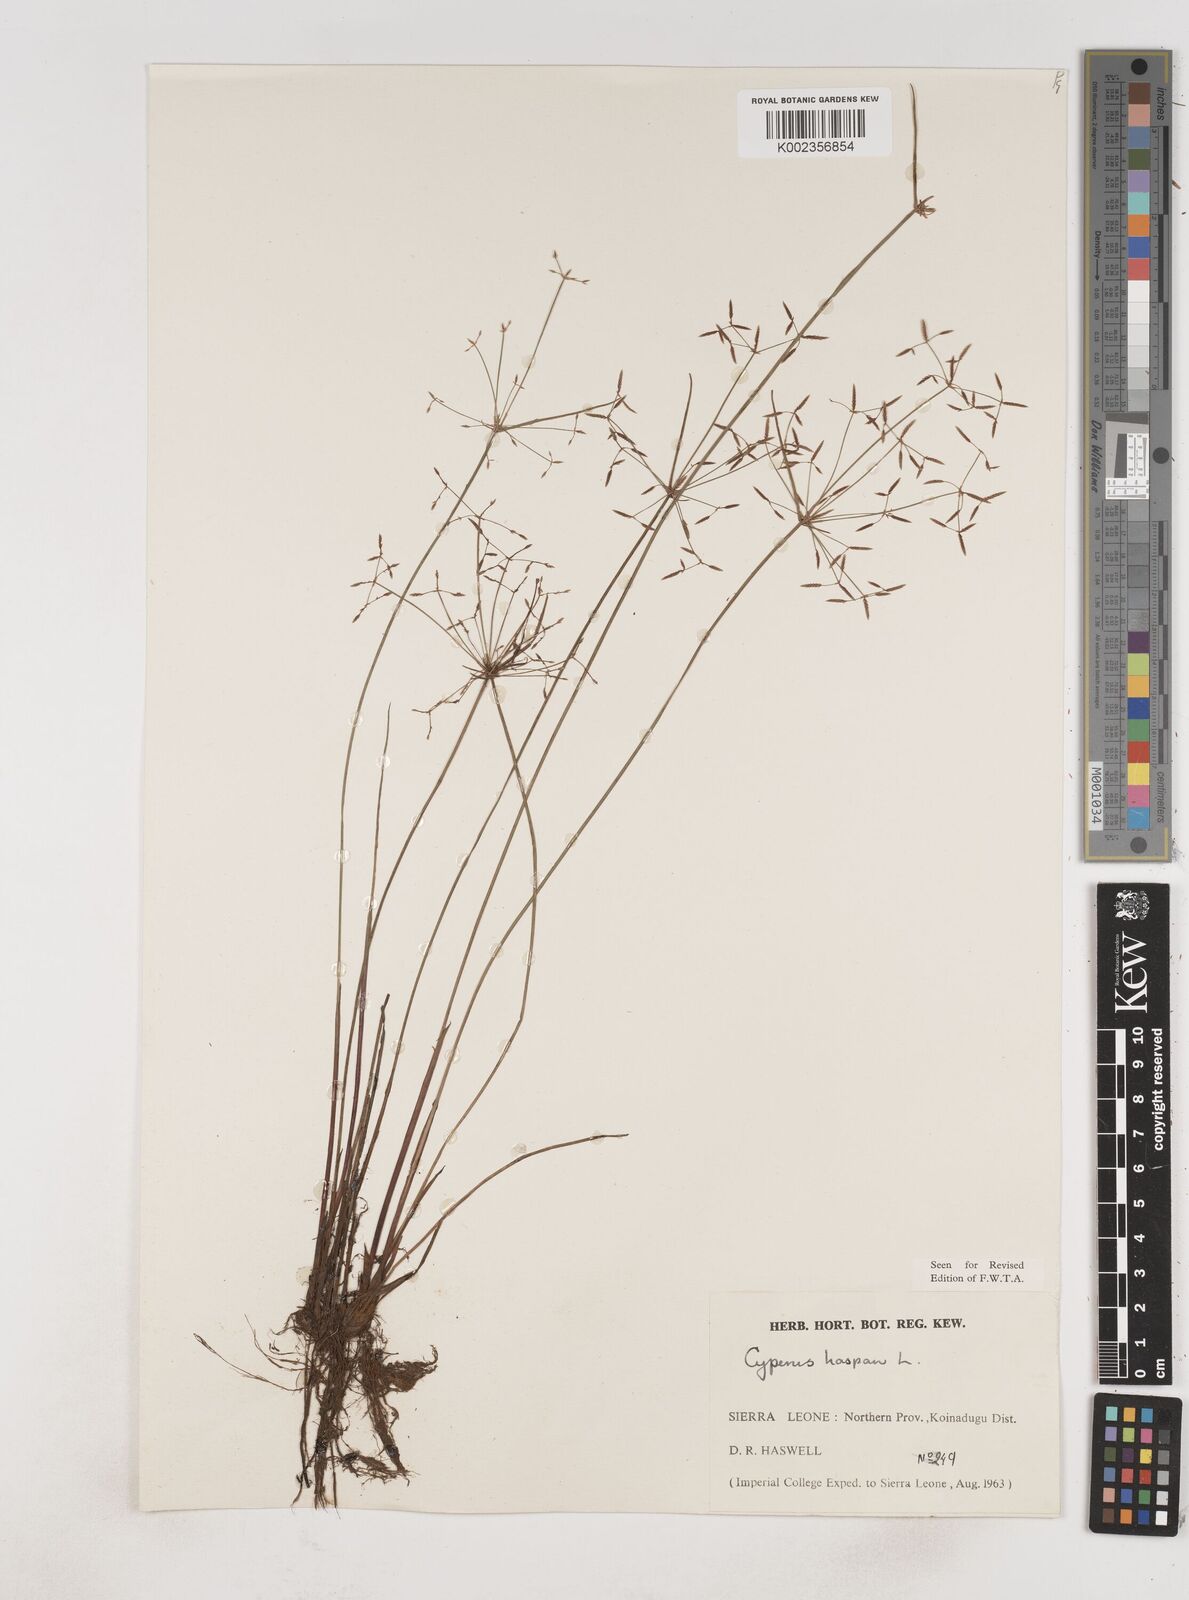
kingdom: Plantae
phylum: Tracheophyta
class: Liliopsida
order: Poales
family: Cyperaceae
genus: Cyperus
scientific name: Cyperus haspan
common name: Haspan flatsedge
